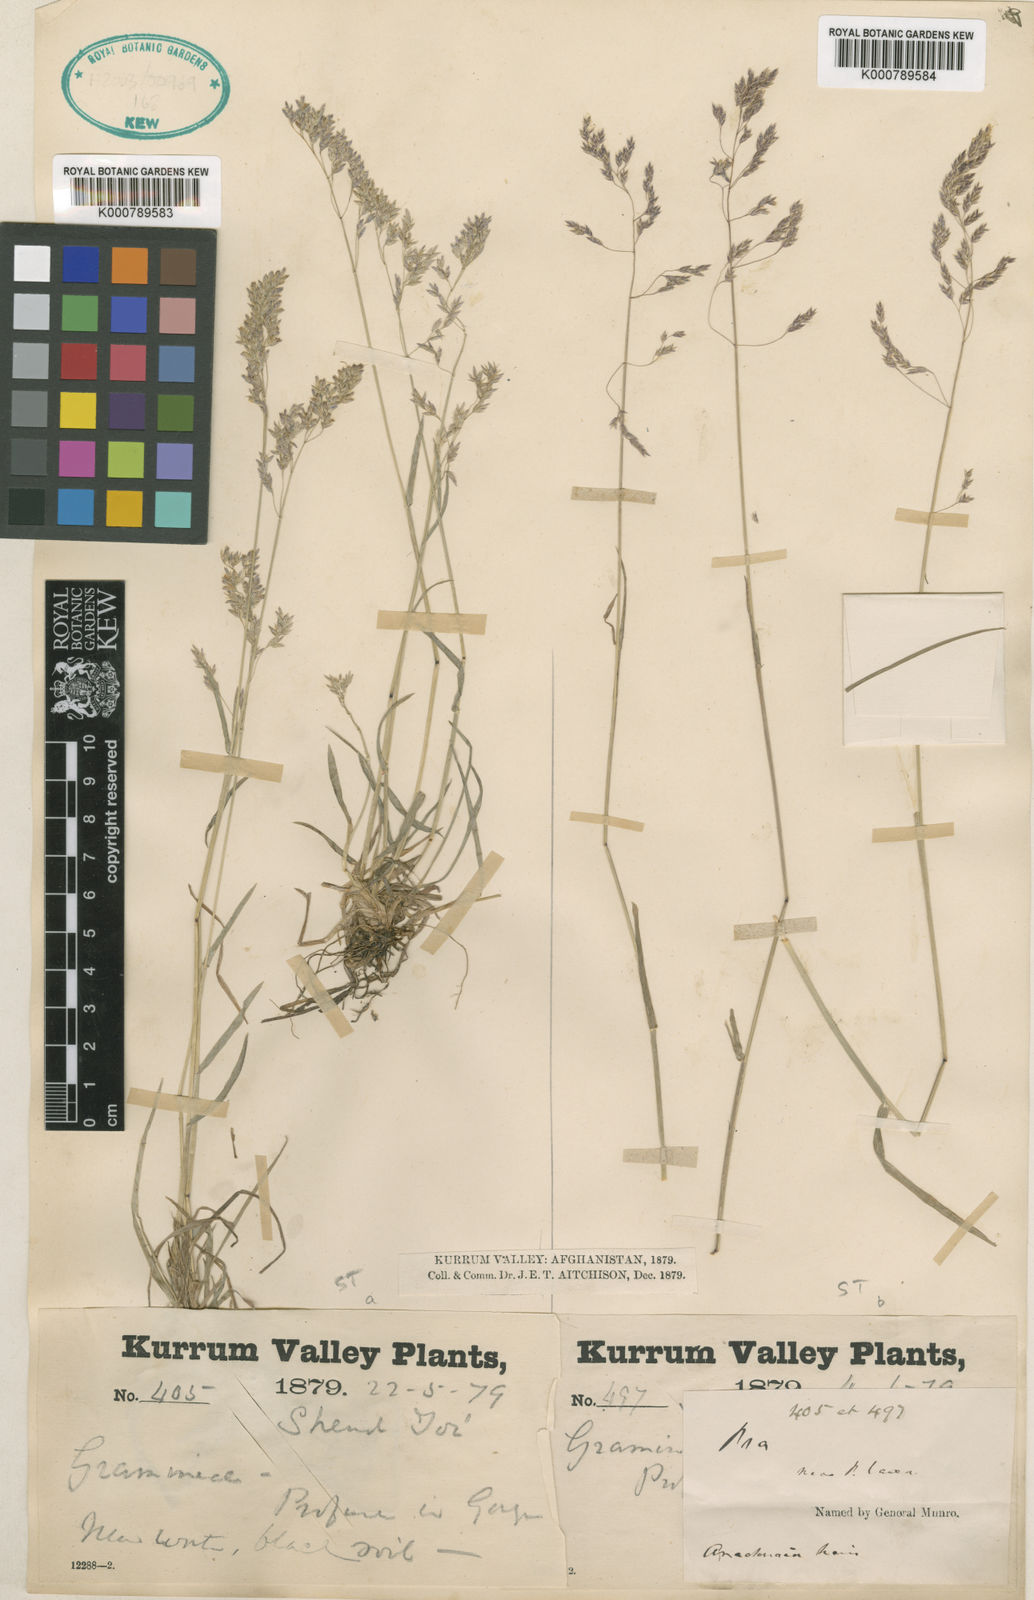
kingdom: Plantae
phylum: Tracheophyta
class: Liliopsida
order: Poales
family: Poaceae
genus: Poa
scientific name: Poa aitchisonii
